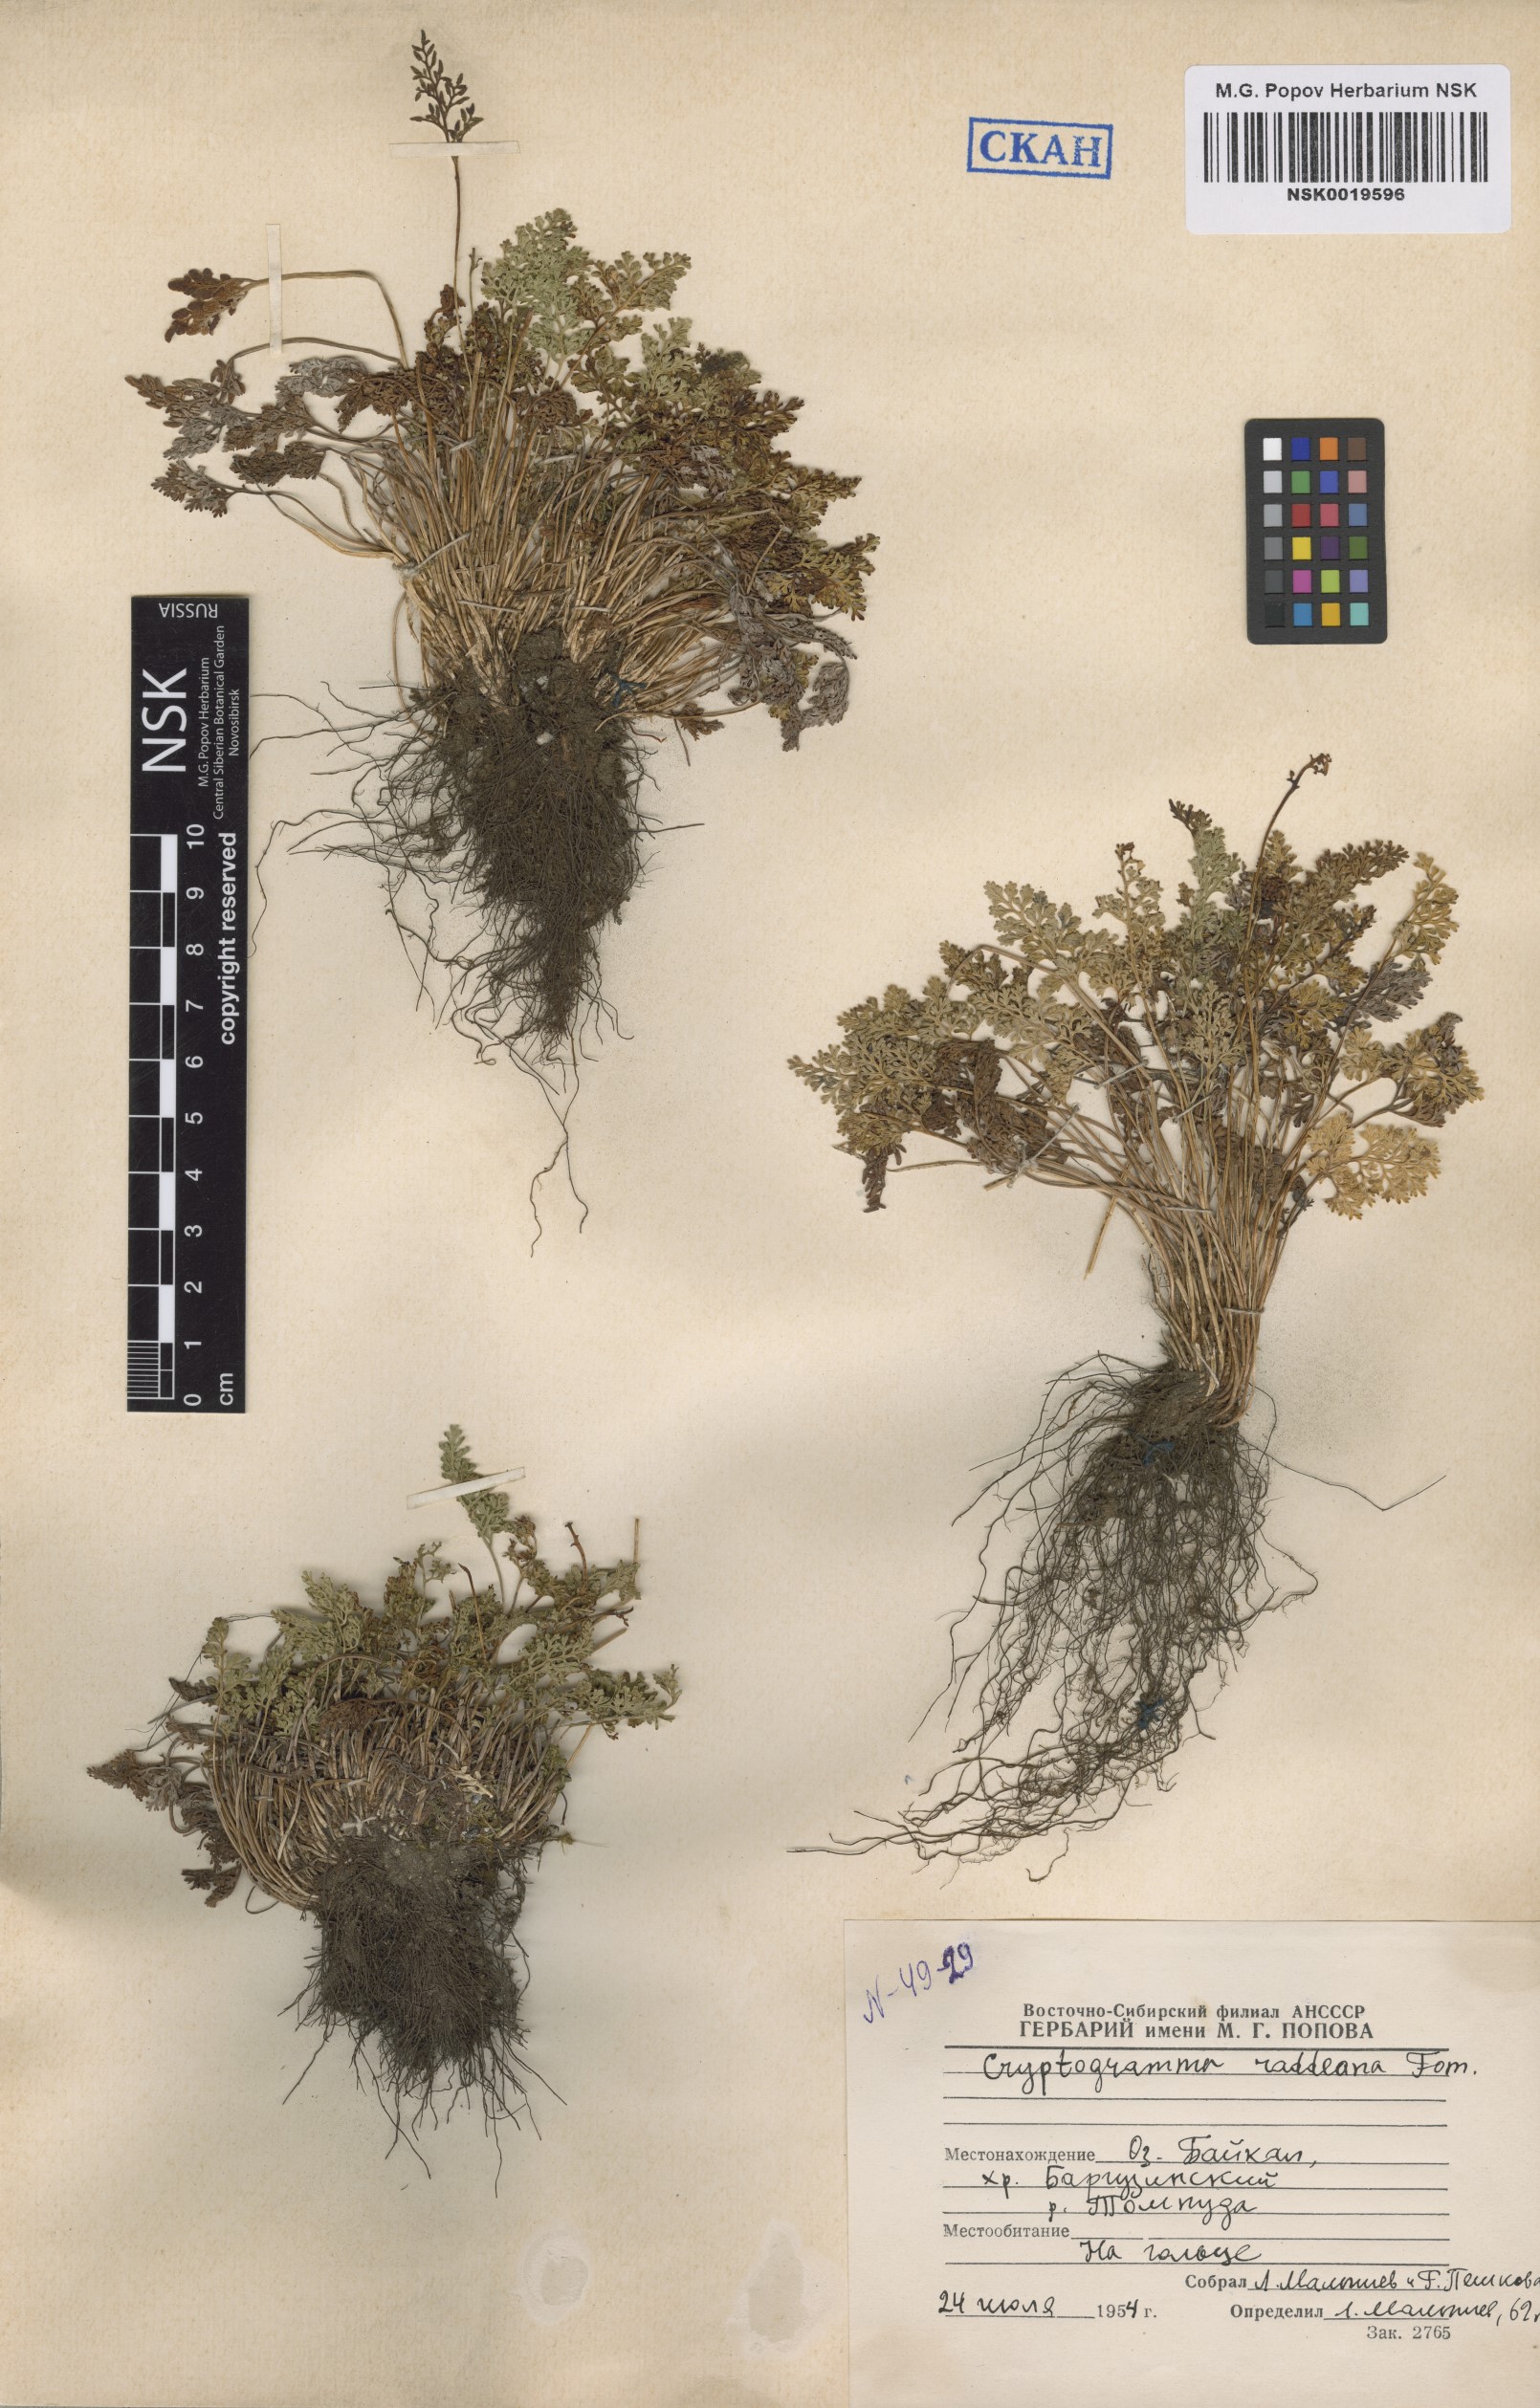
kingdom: Plantae
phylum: Tracheophyta
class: Polypodiopsida
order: Polypodiales
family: Pteridaceae
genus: Cryptogramma
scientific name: Cryptogramma brunoniana
